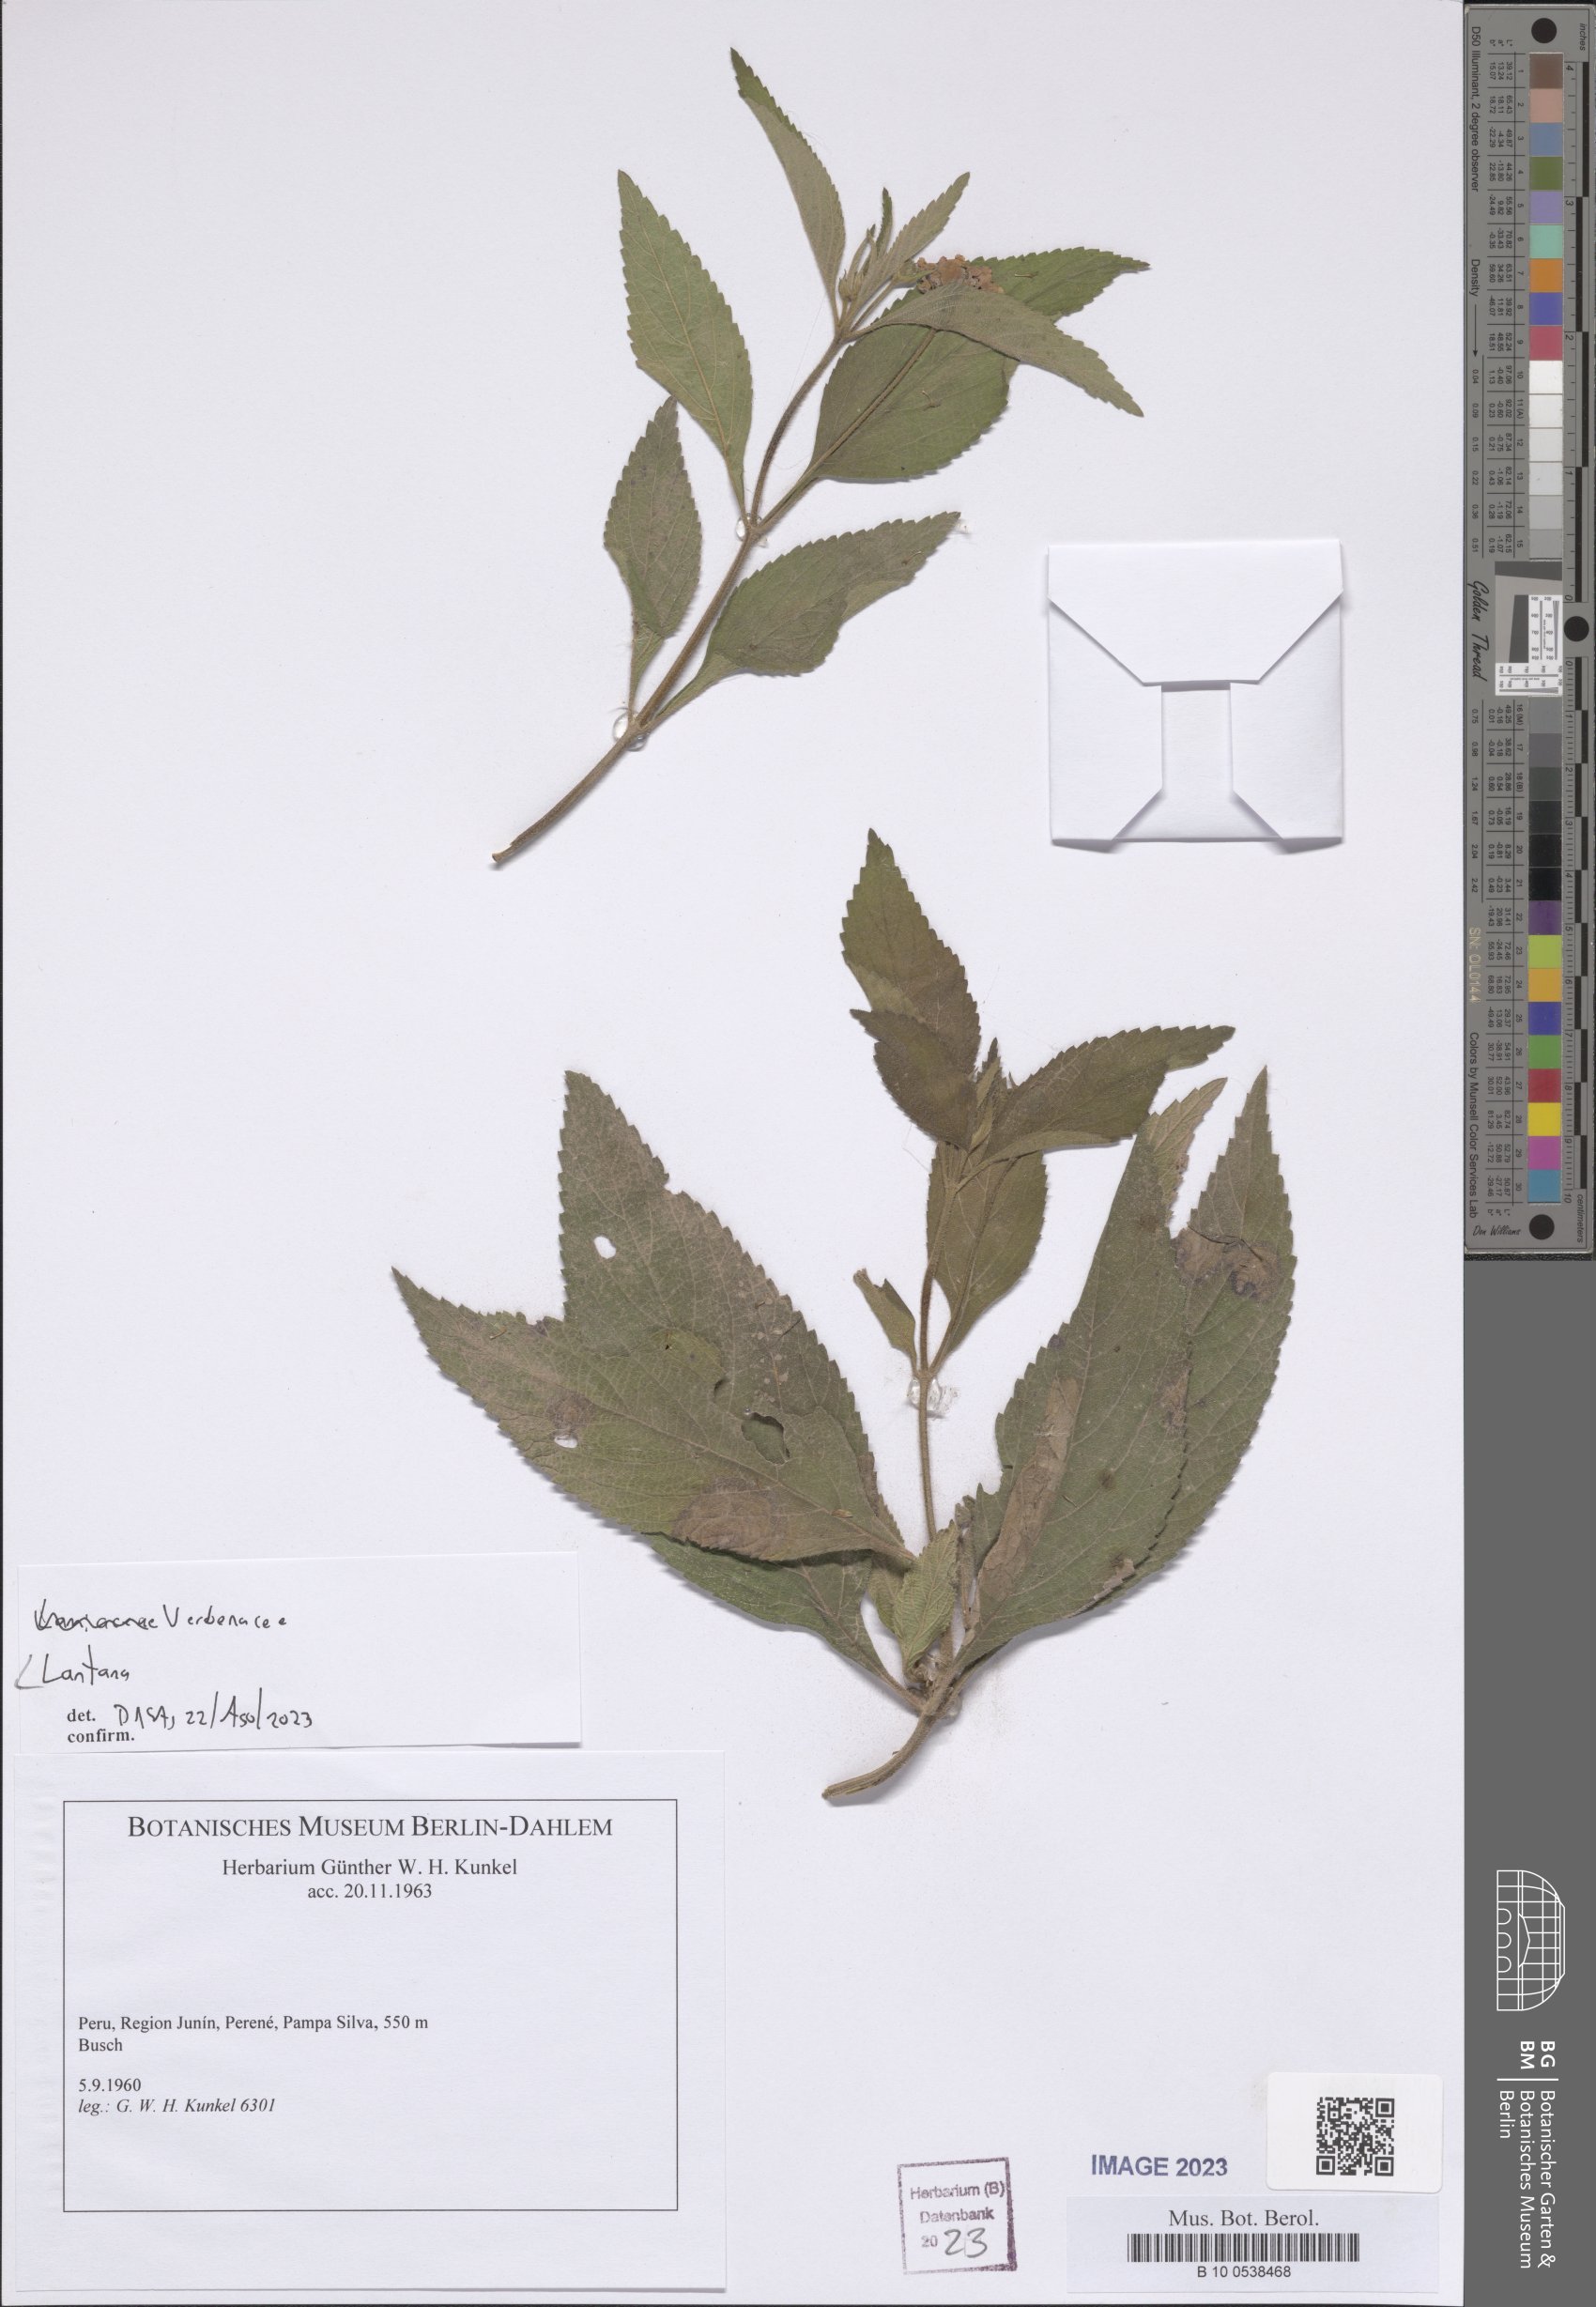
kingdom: Plantae
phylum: Tracheophyta
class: Magnoliopsida
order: Lamiales
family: Verbenaceae
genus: Lantana
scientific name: Lantana
